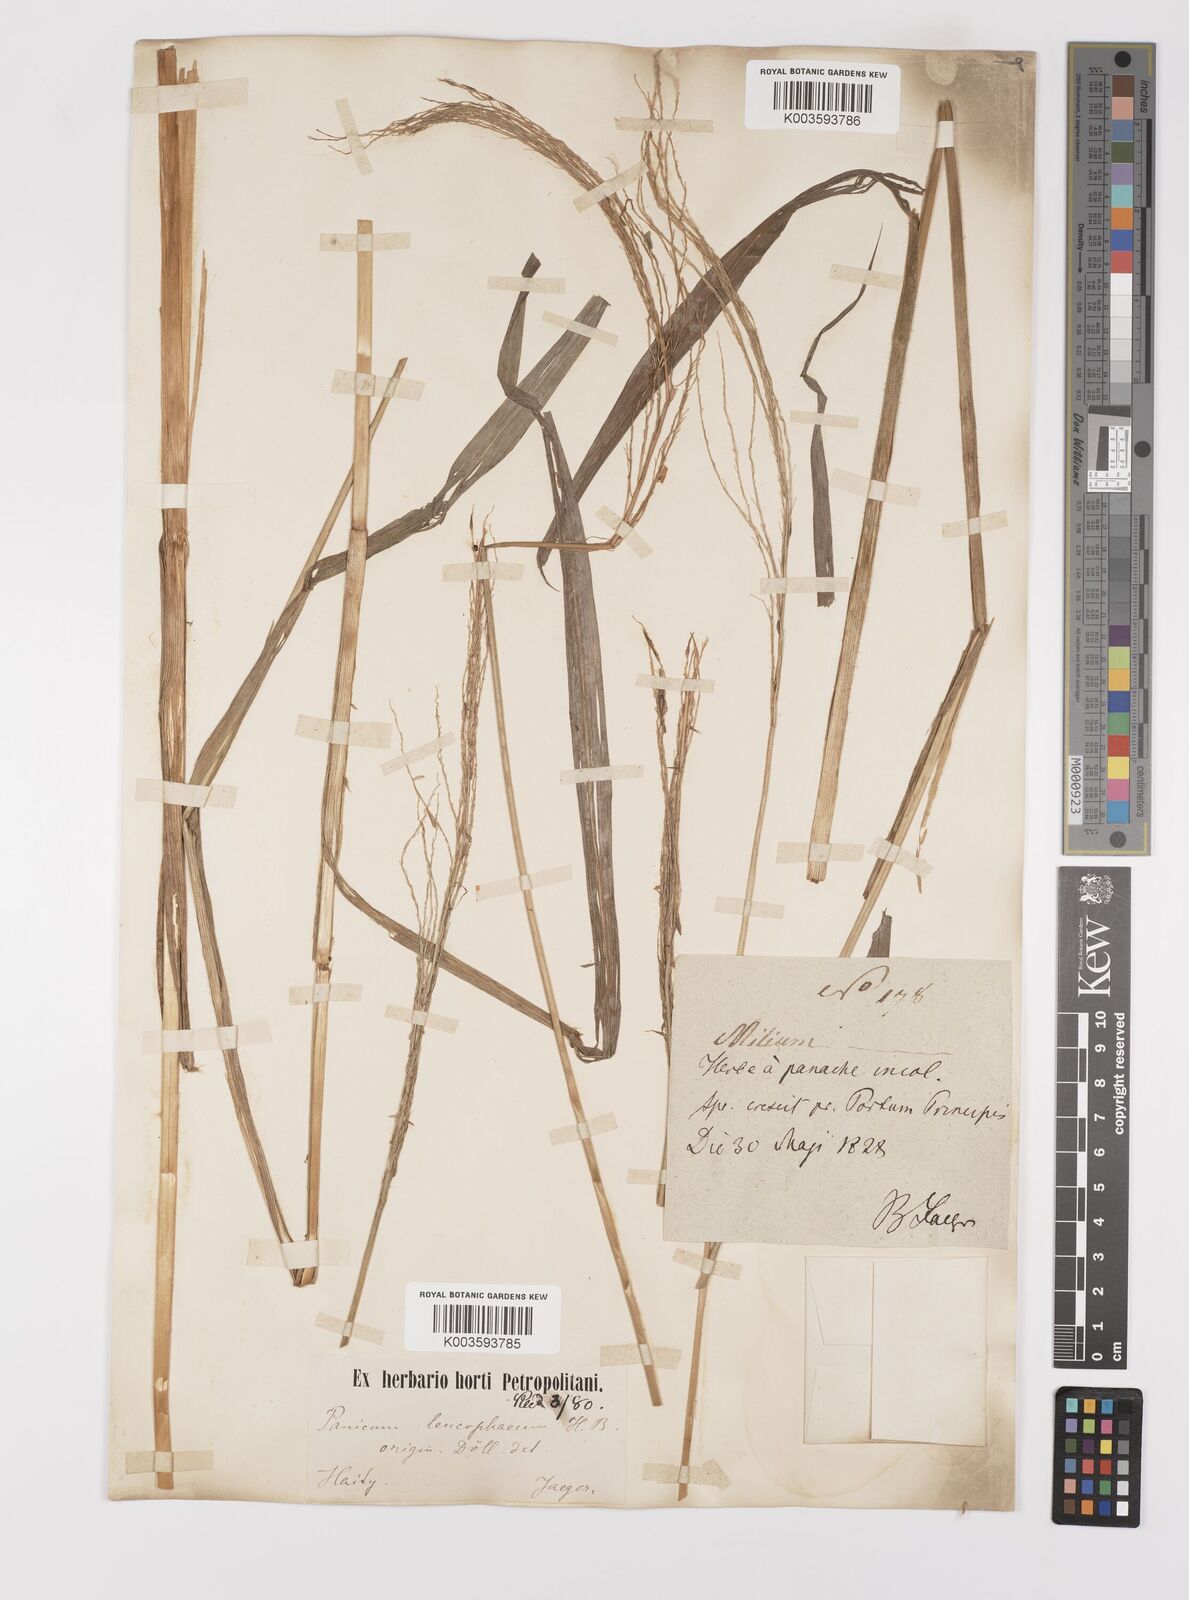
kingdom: Plantae
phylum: Tracheophyta
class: Liliopsida
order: Poales
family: Poaceae
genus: Digitaria
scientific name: Digitaria insularis
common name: Sourgrass
